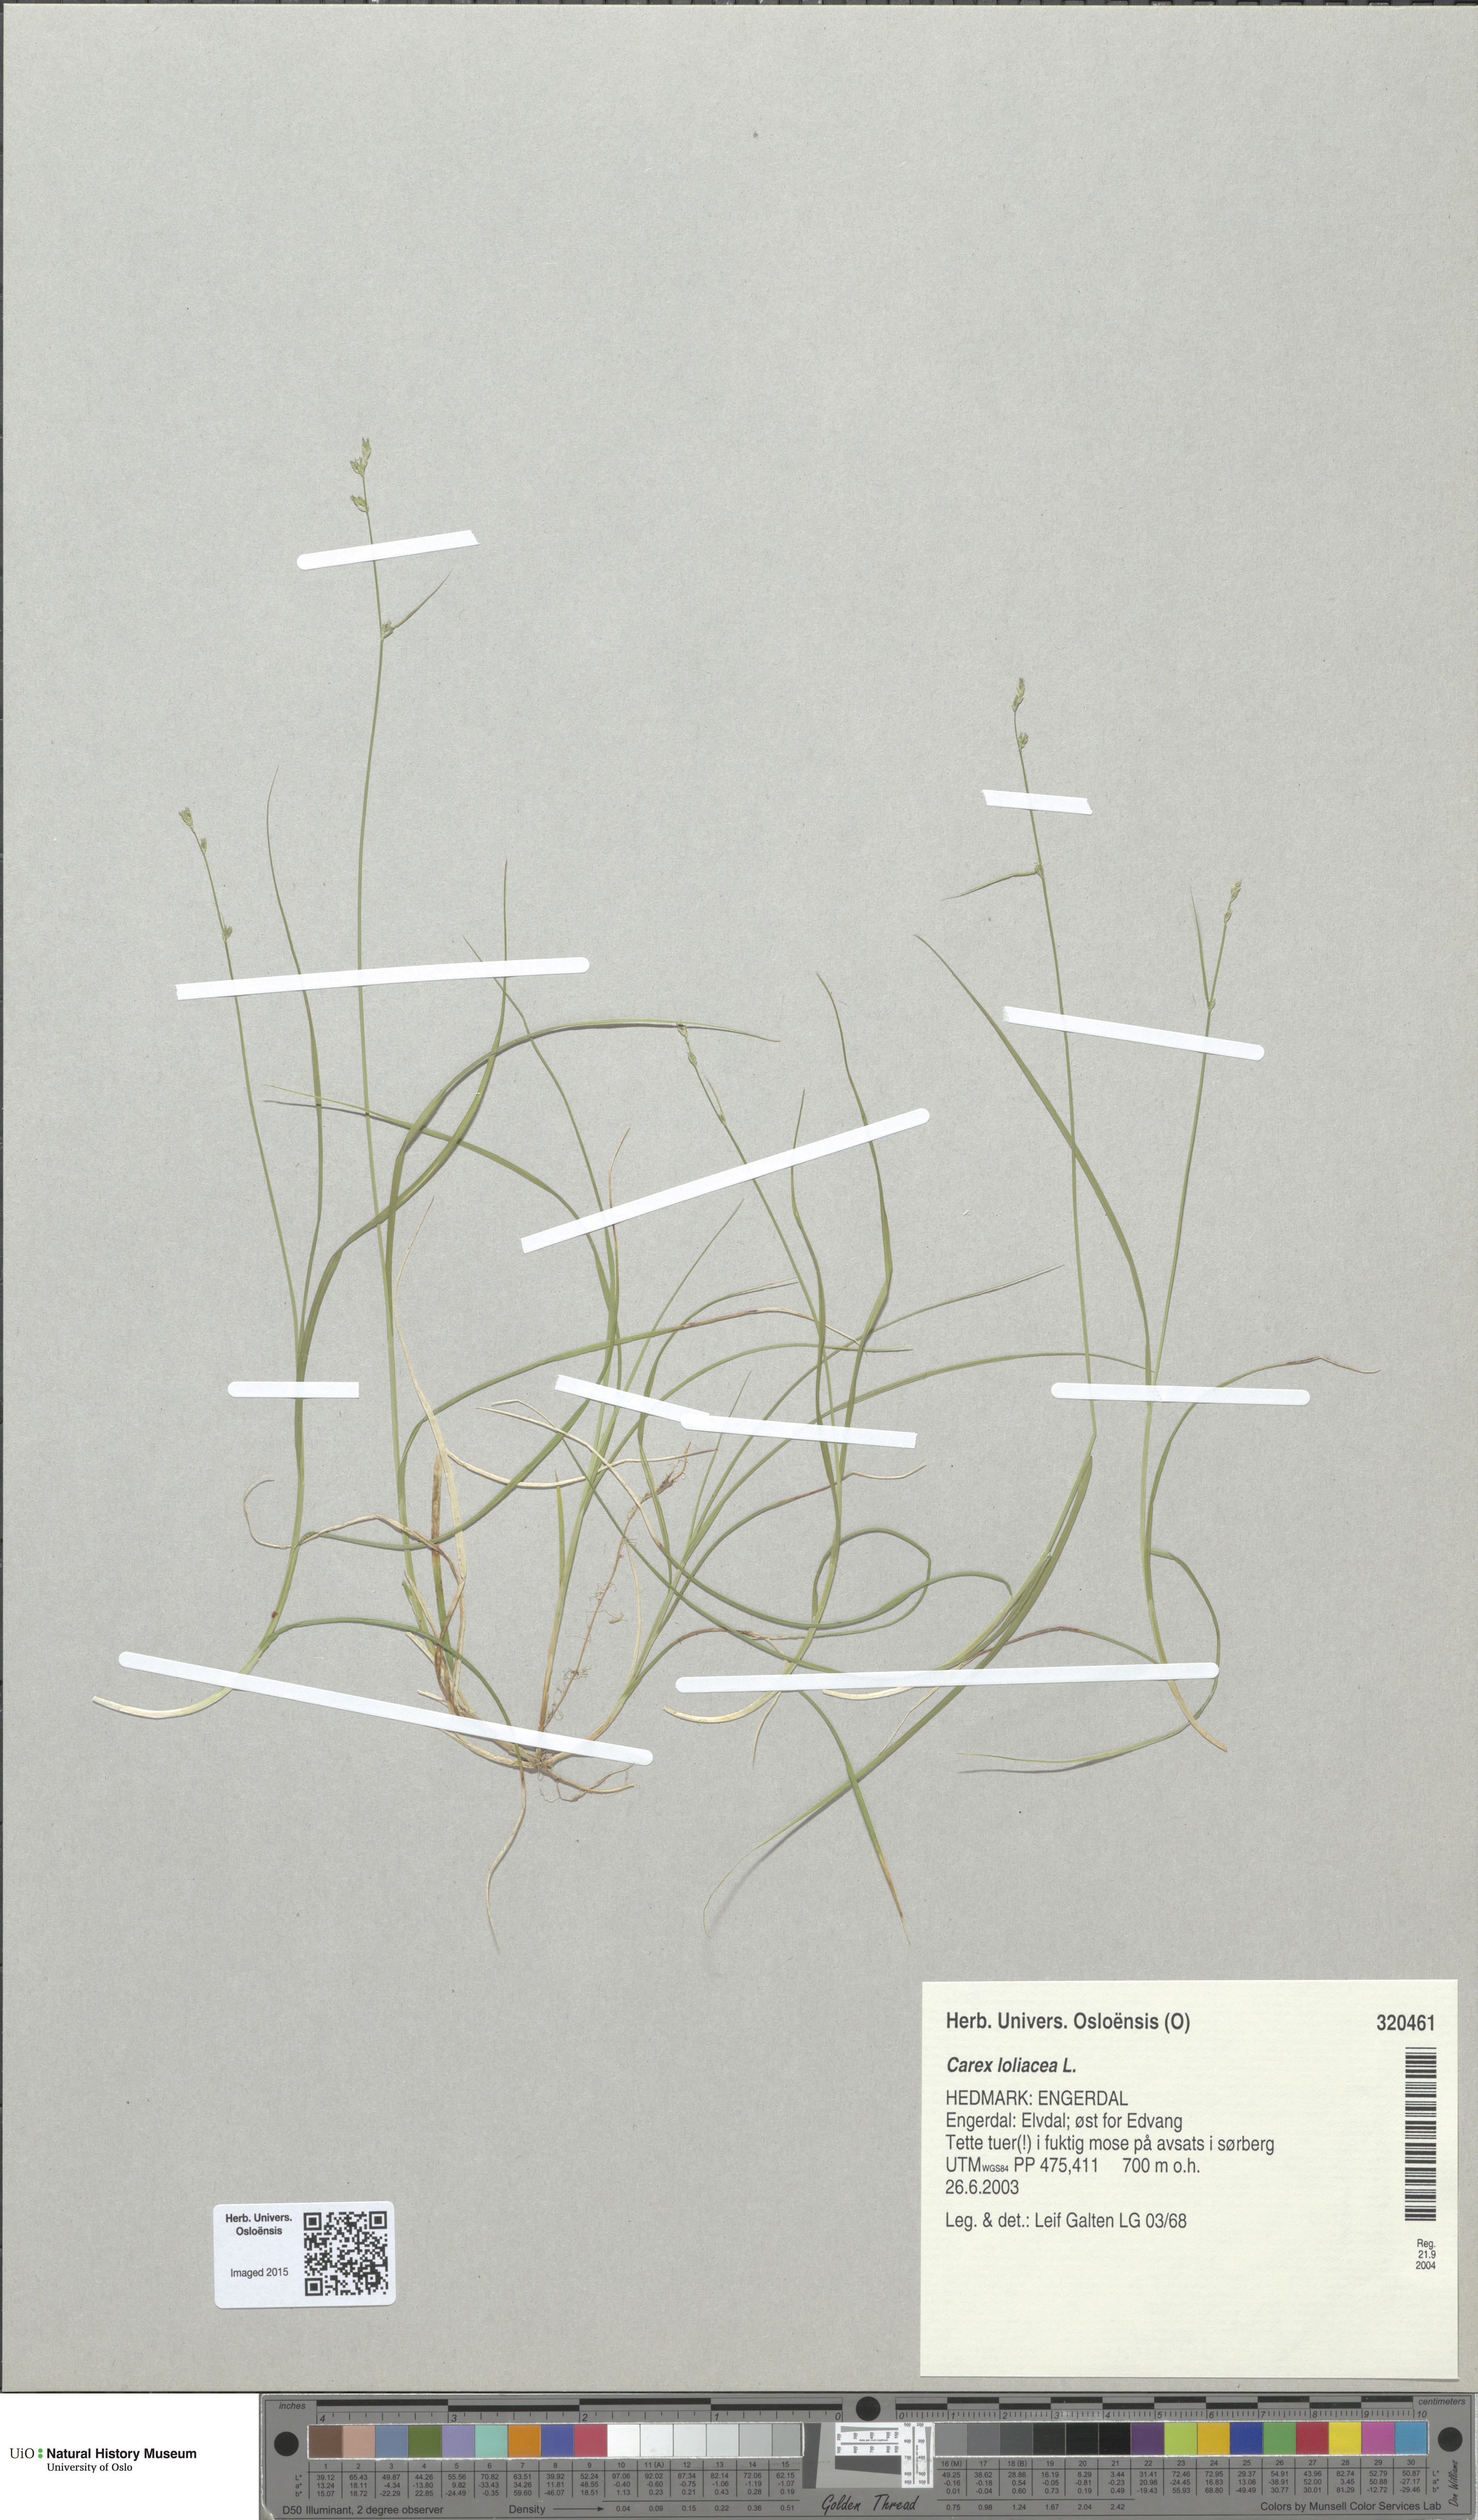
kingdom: Plantae
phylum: Tracheophyta
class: Liliopsida
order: Poales
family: Cyperaceae
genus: Carex
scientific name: Carex loliacea
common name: Ryegrass sedge
